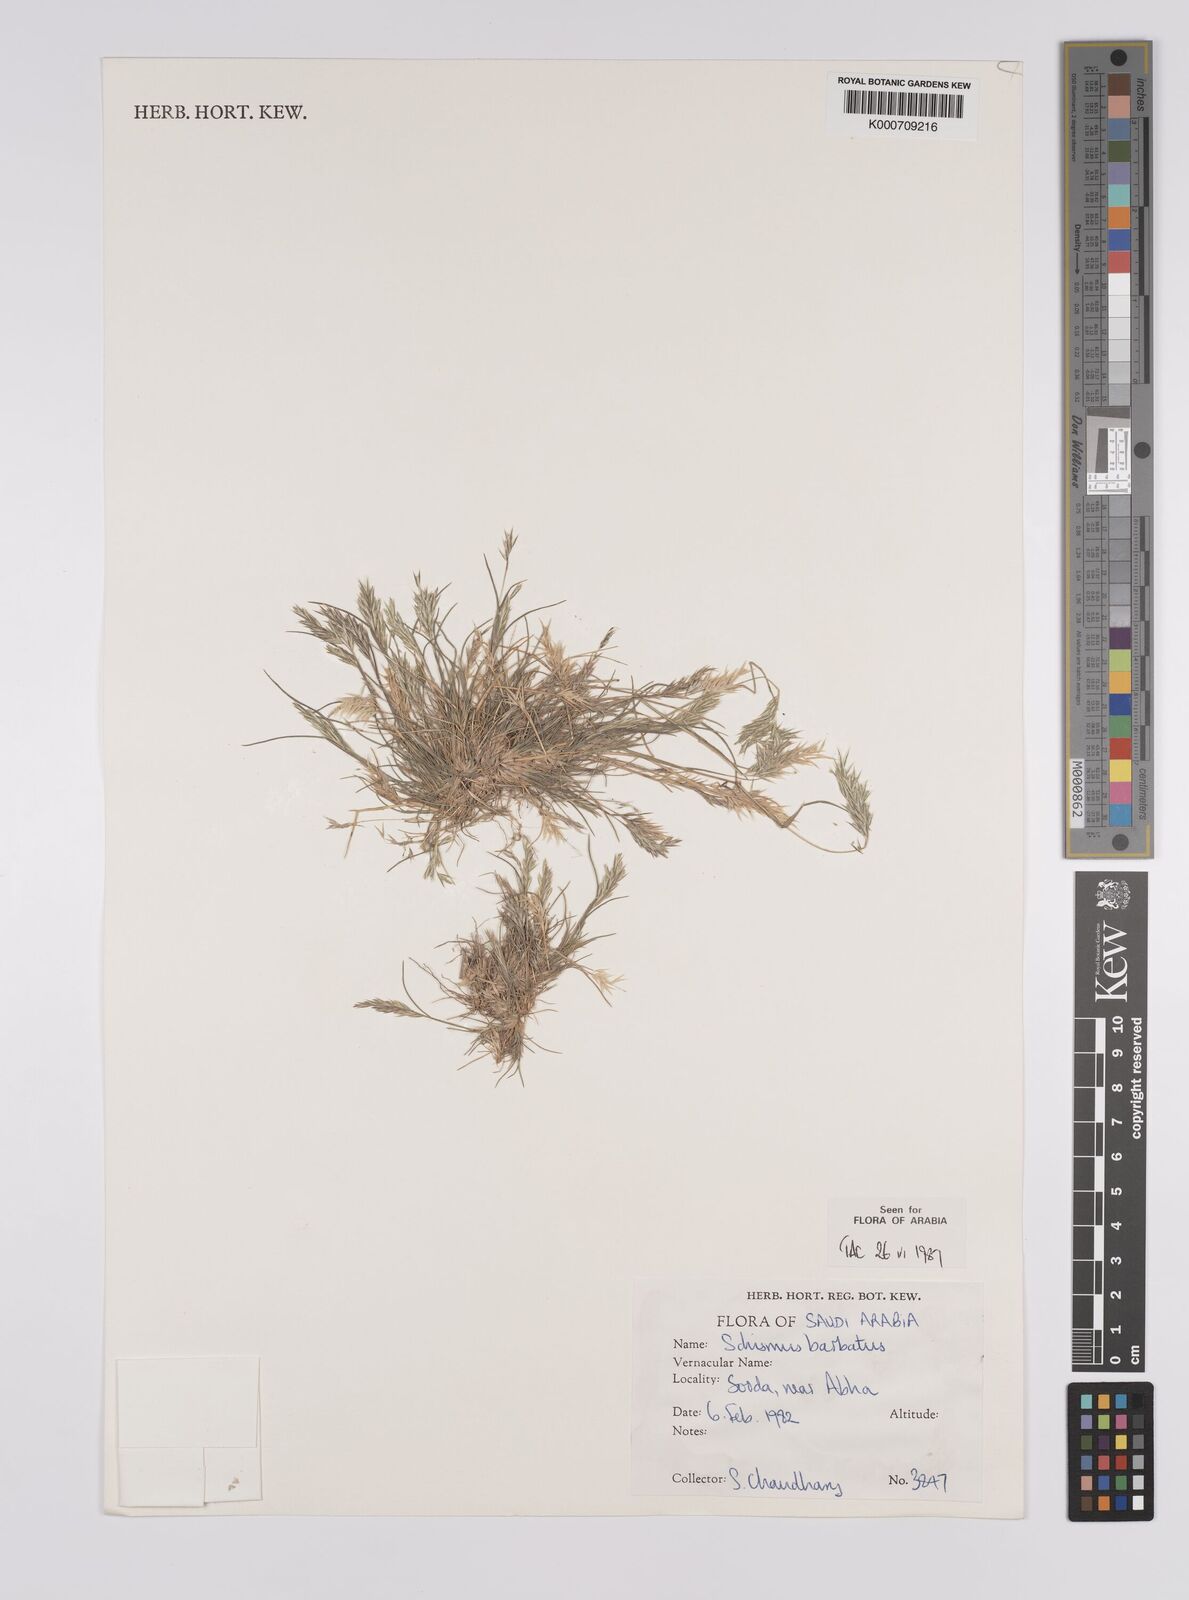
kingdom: Plantae
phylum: Tracheophyta
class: Liliopsida
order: Poales
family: Poaceae
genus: Schismus
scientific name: Schismus barbatus
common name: Kelch-grass
